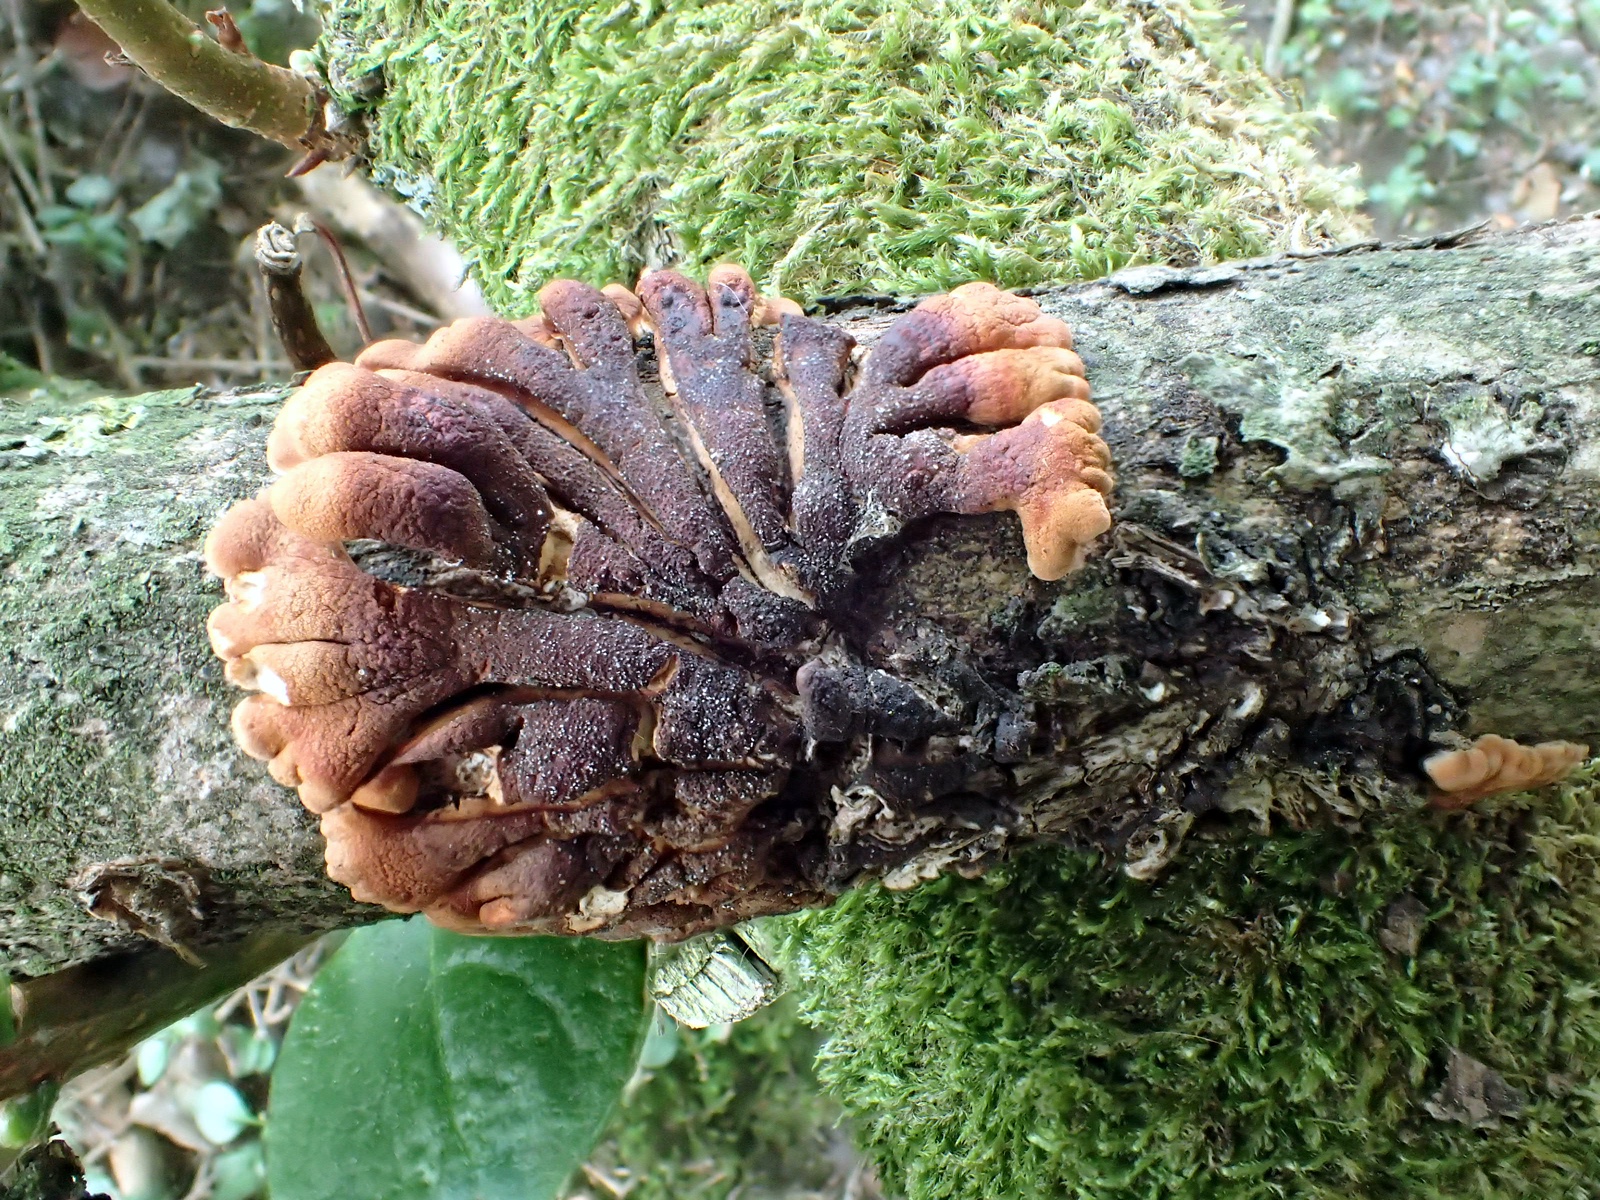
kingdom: Fungi
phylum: Ascomycota
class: Sordariomycetes
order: Hypocreales
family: Hypocreaceae
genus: Hypocreopsis
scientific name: Hypocreopsis lichenoides
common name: pilfinger
